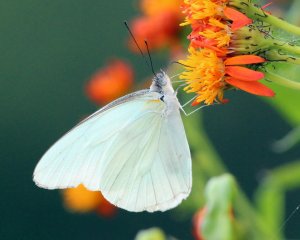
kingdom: Animalia
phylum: Arthropoda
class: Insecta
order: Lepidoptera
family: Pieridae
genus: Glutophrissa
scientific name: Glutophrissa drusilla
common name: Florida White
